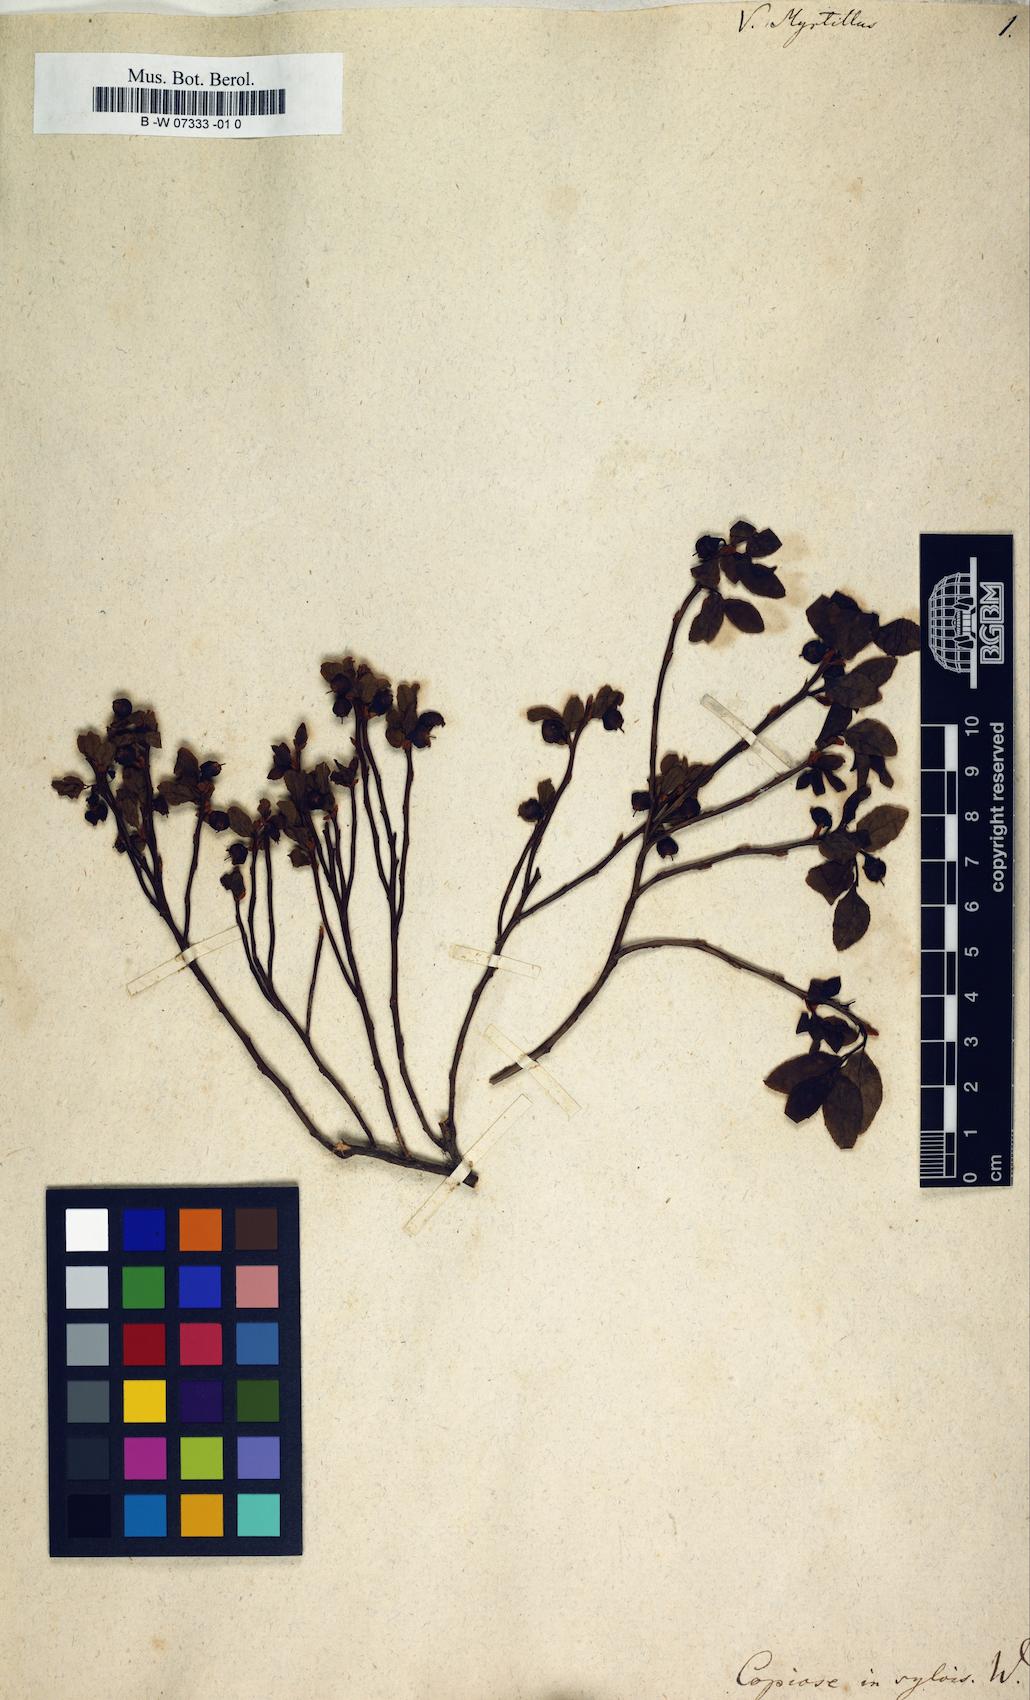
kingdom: Plantae
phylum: Tracheophyta
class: Magnoliopsida
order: Ericales
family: Ericaceae
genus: Vaccinium
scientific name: Vaccinium myrtillus
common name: Bilberry
